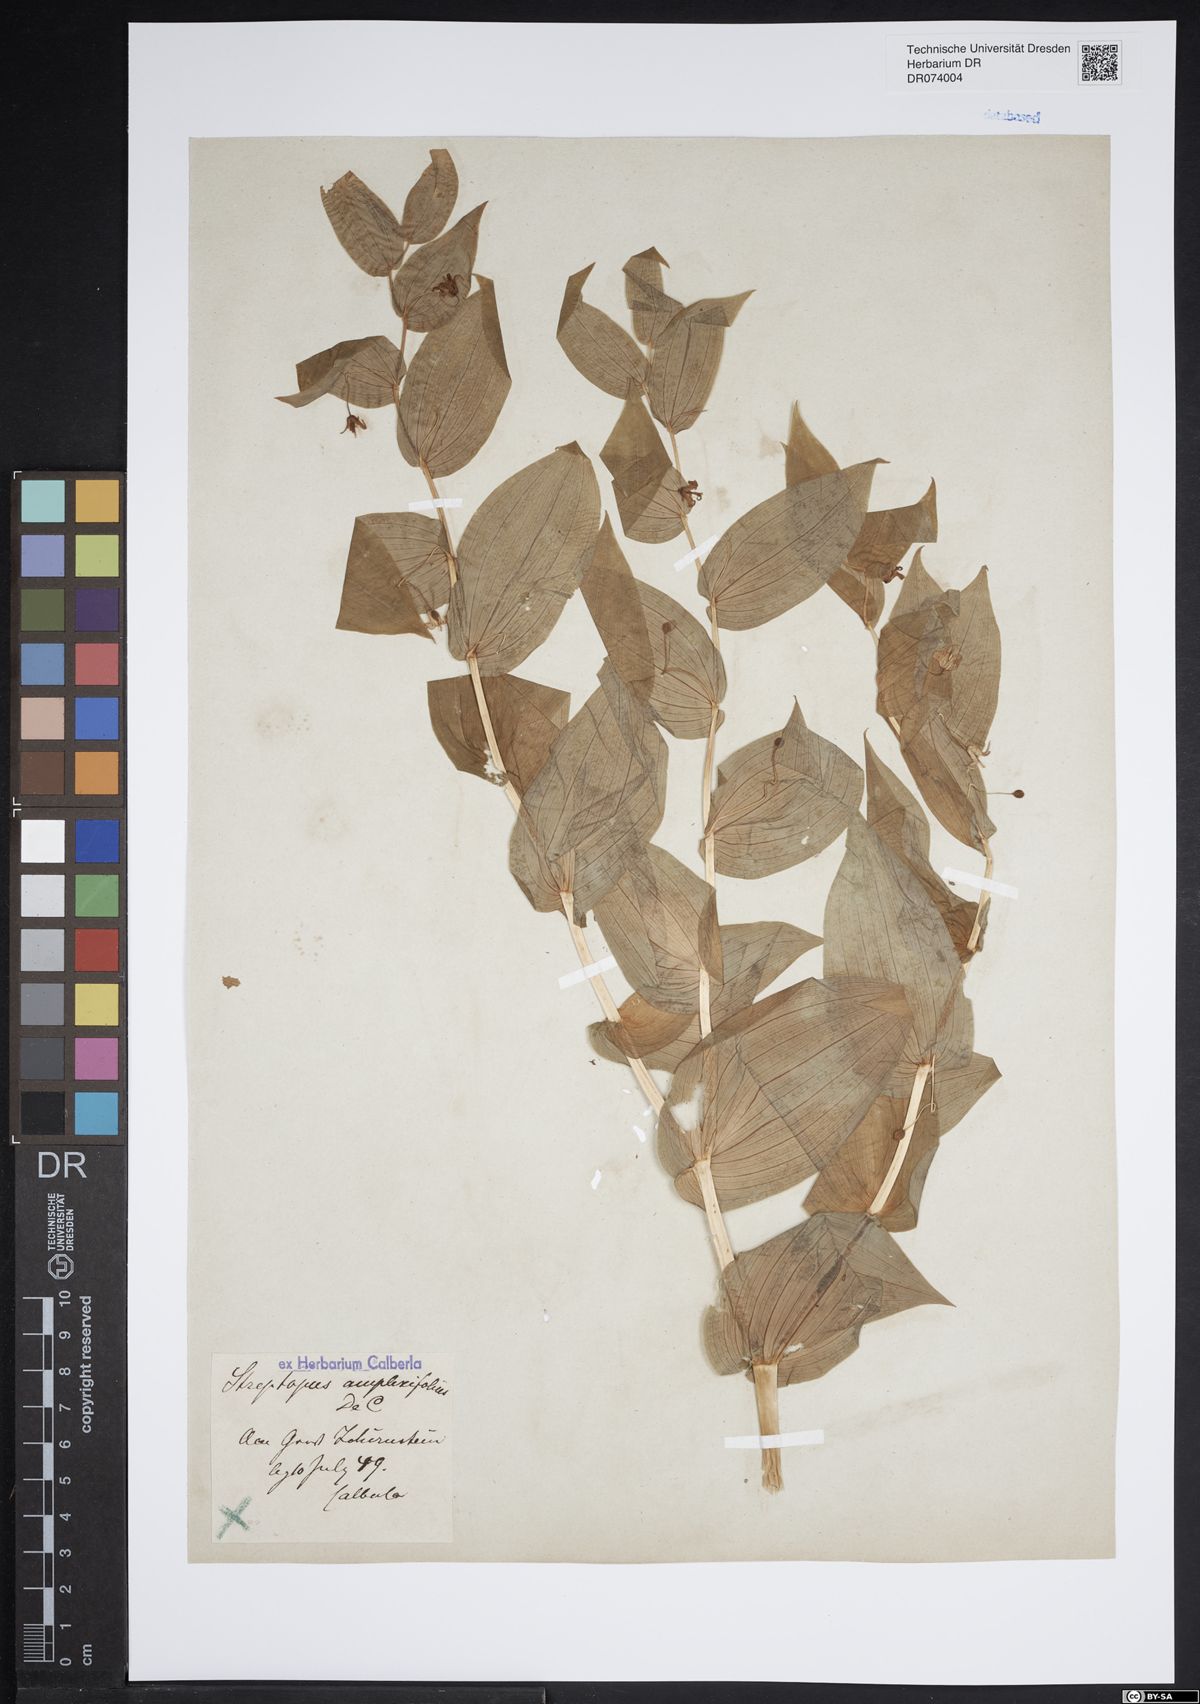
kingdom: Plantae
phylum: Tracheophyta
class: Liliopsida
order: Liliales
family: Liliaceae
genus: Streptopus
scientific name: Streptopus amplexifolius
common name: Clasp twisted stalk
